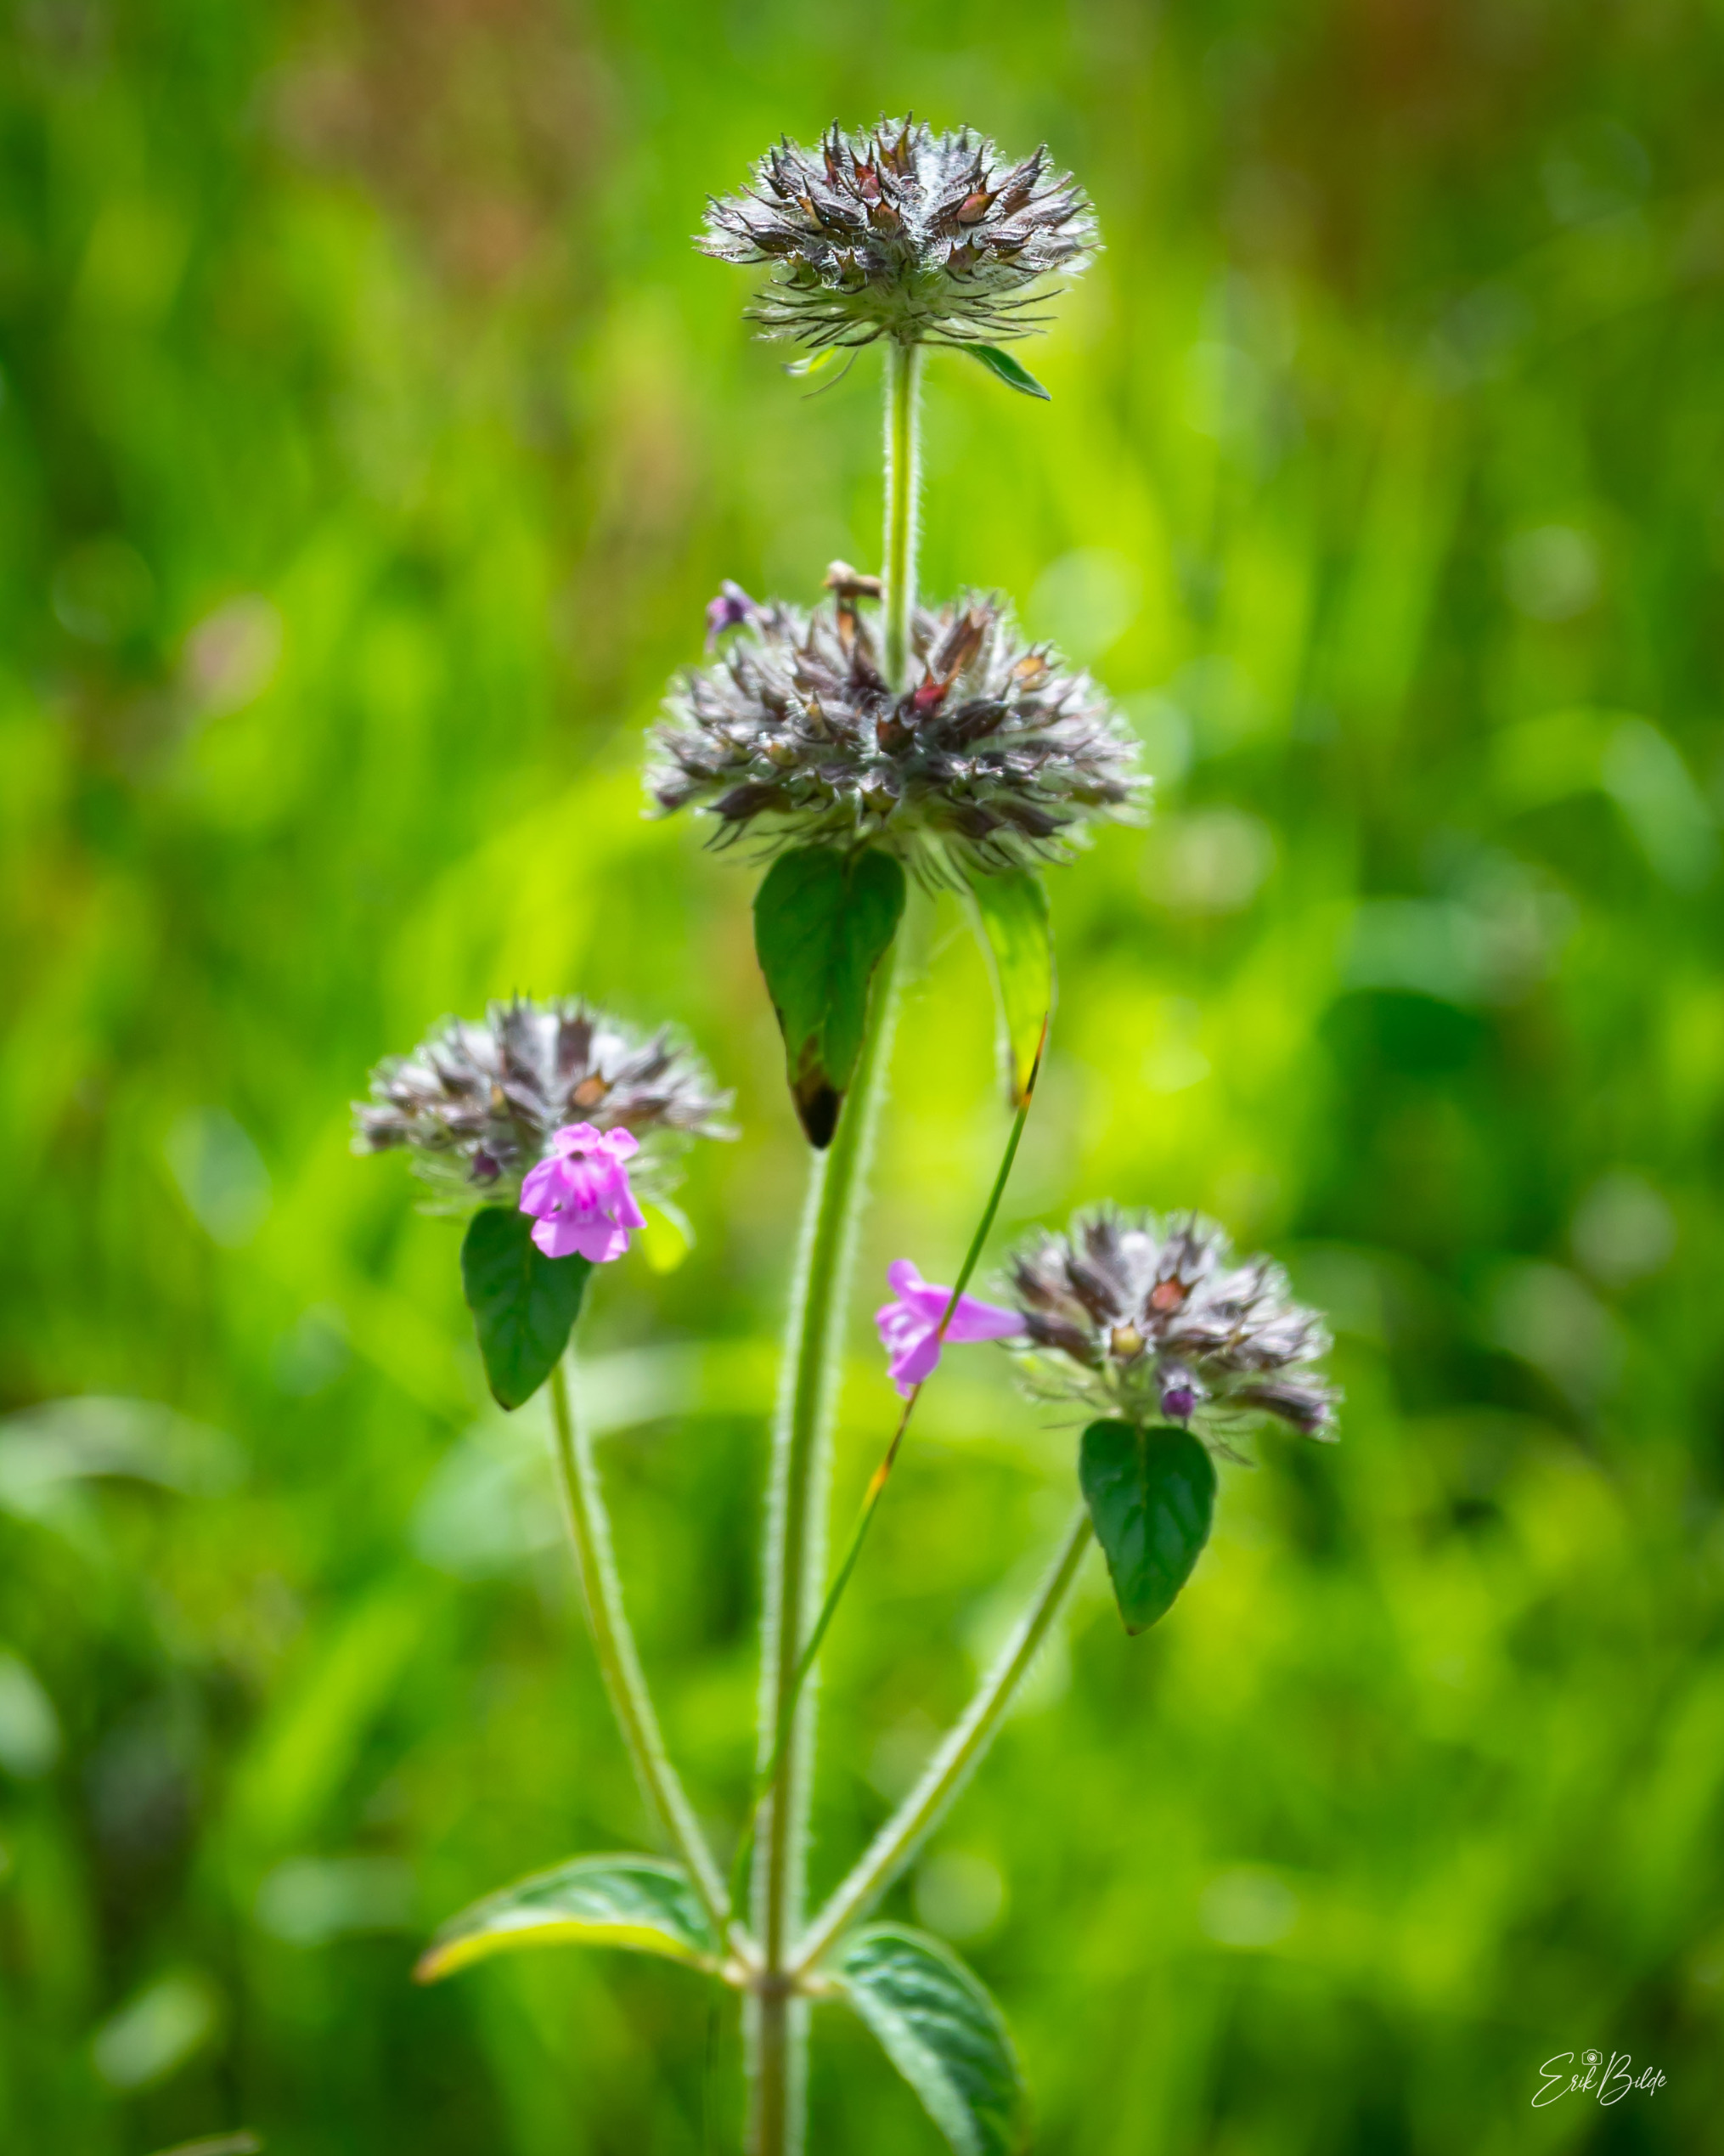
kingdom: Plantae
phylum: Tracheophyta
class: Magnoliopsida
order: Lamiales
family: Lamiaceae
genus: Clinopodium
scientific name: Clinopodium vulgare
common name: Kransbørste
